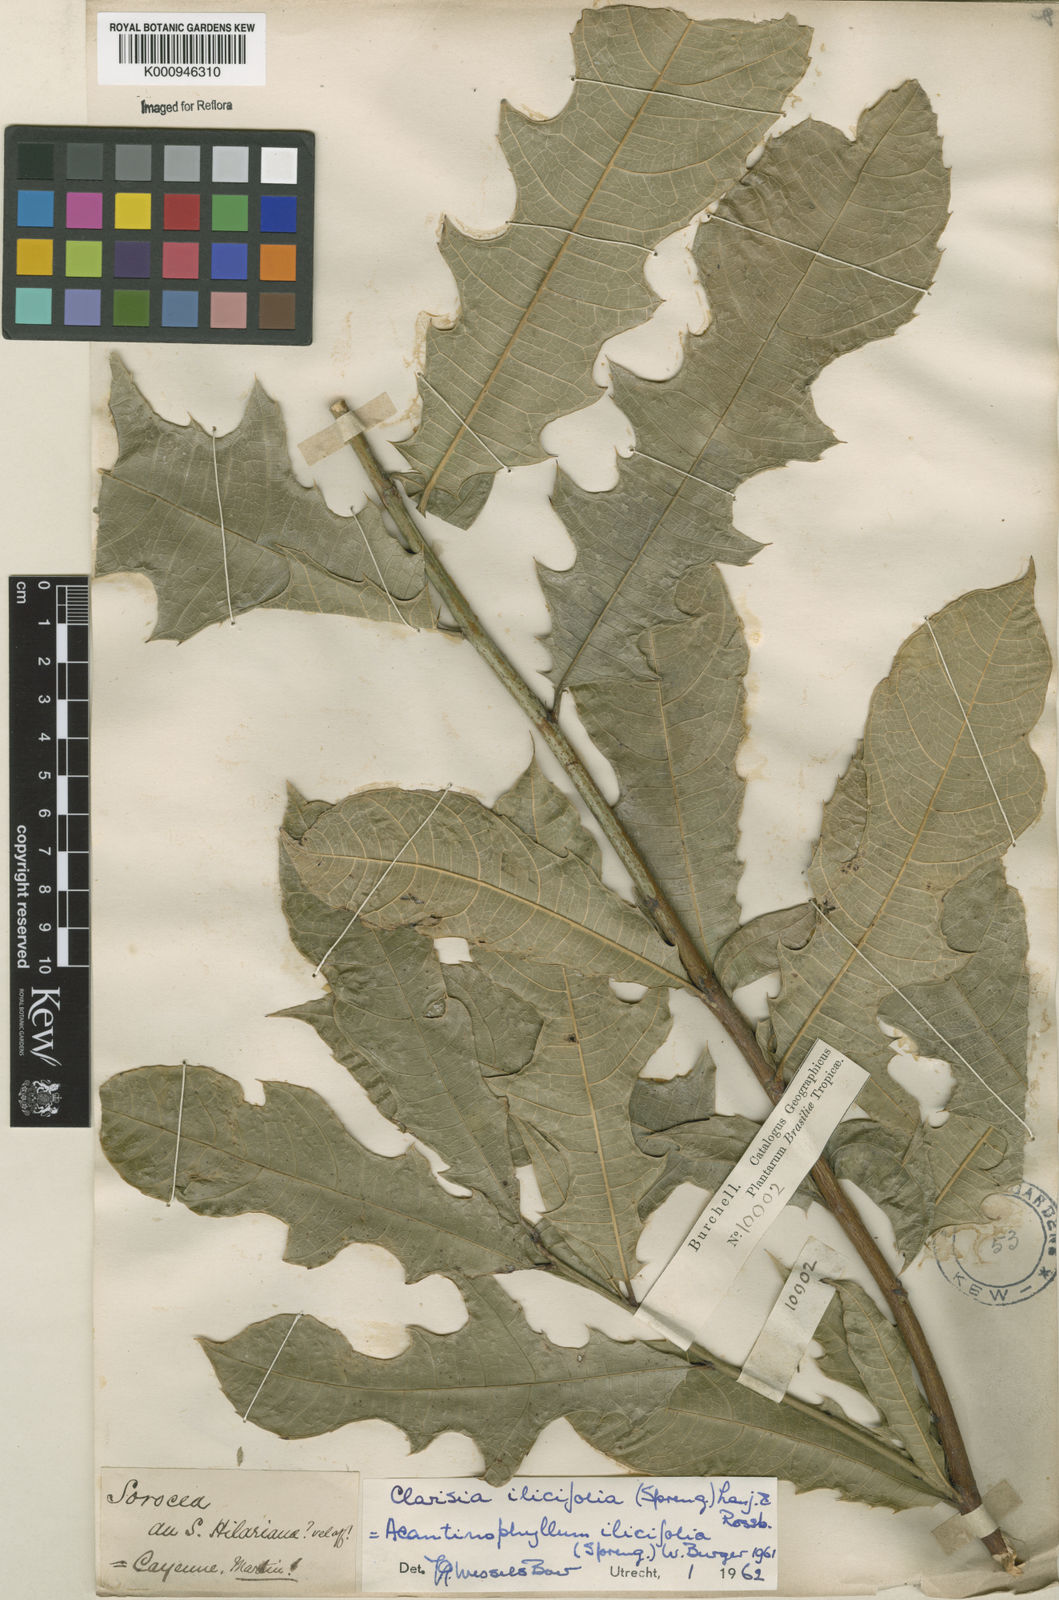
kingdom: Plantae
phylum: Tracheophyta
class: Magnoliopsida
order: Rosales
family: Moraceae
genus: Clarisia
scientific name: Clarisia ilicifolia
